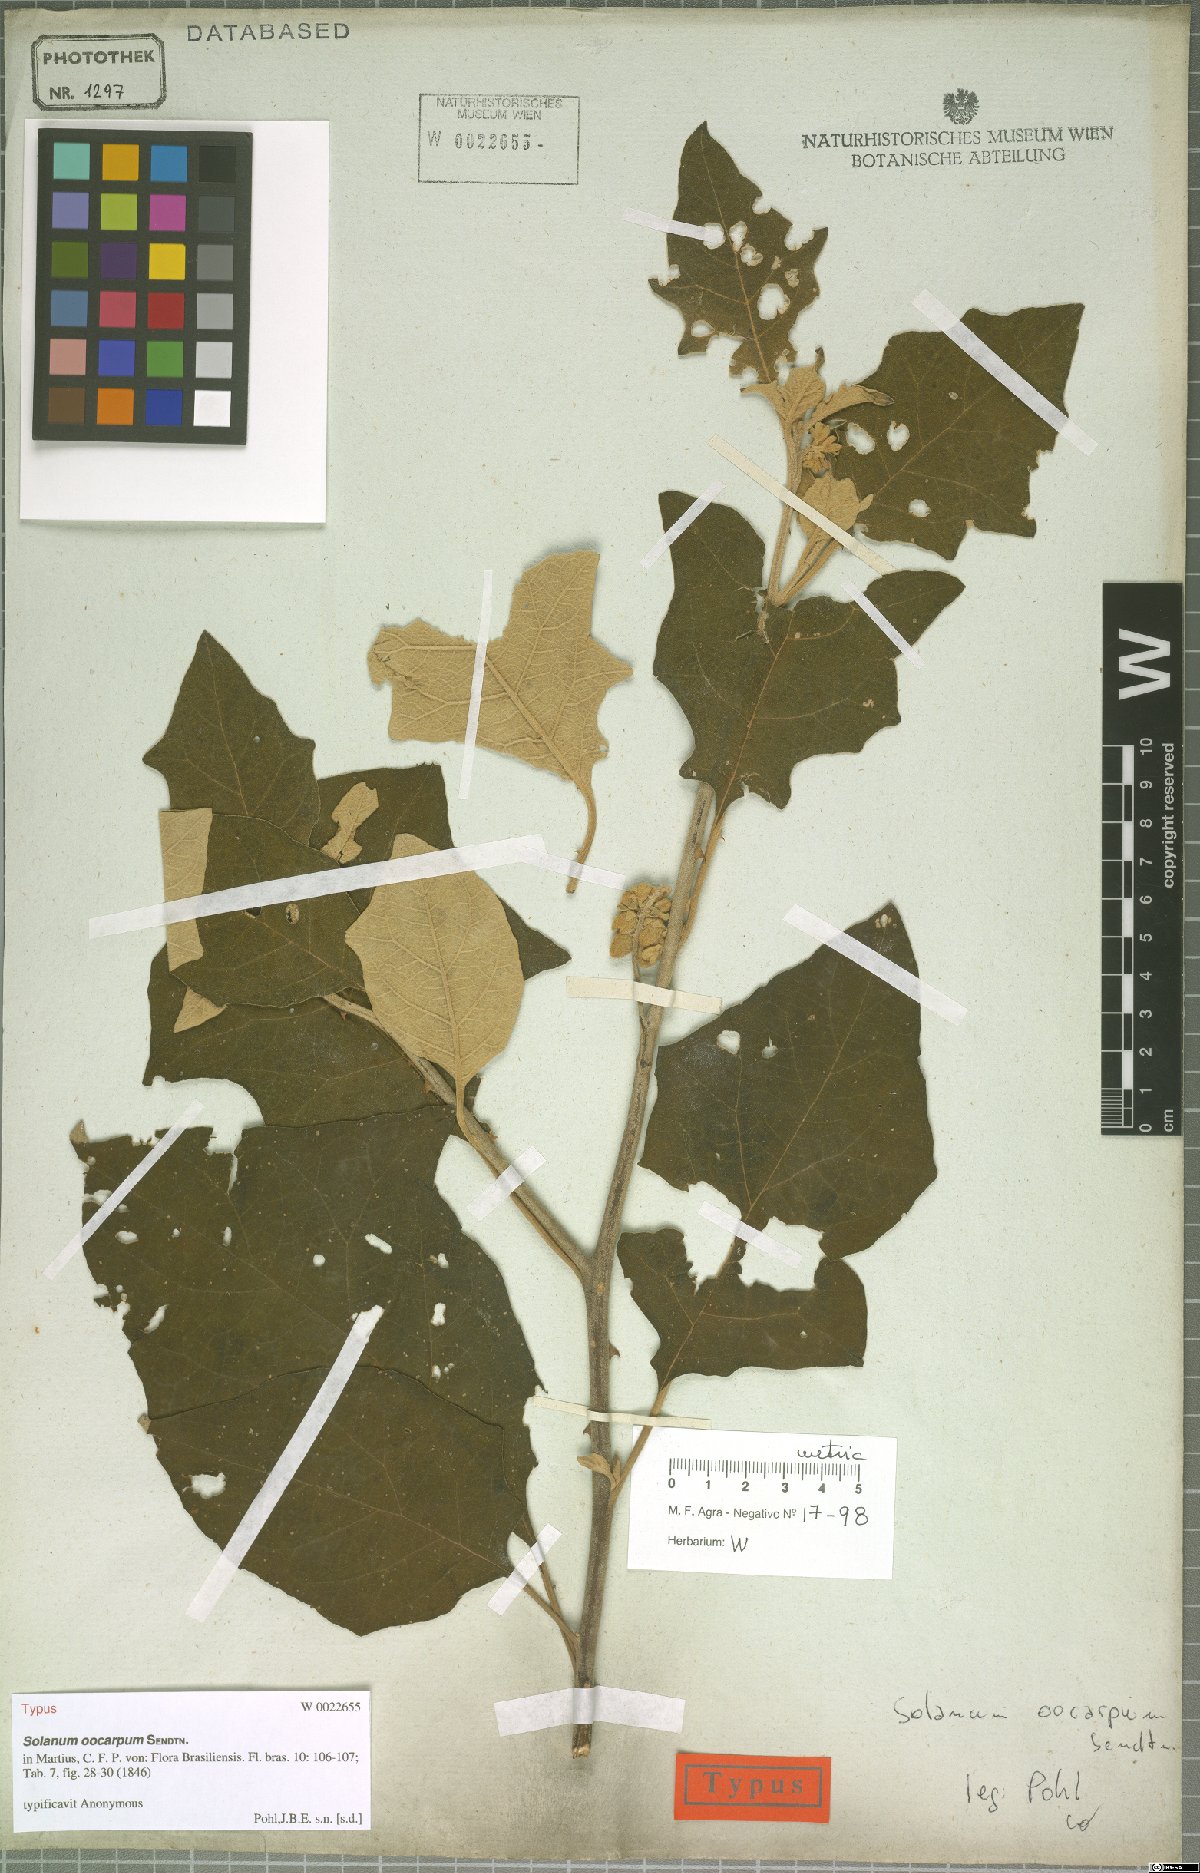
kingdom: Plantae
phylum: Tracheophyta
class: Magnoliopsida
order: Solanales
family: Solanaceae
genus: Solanum
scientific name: Solanum oocarpum
